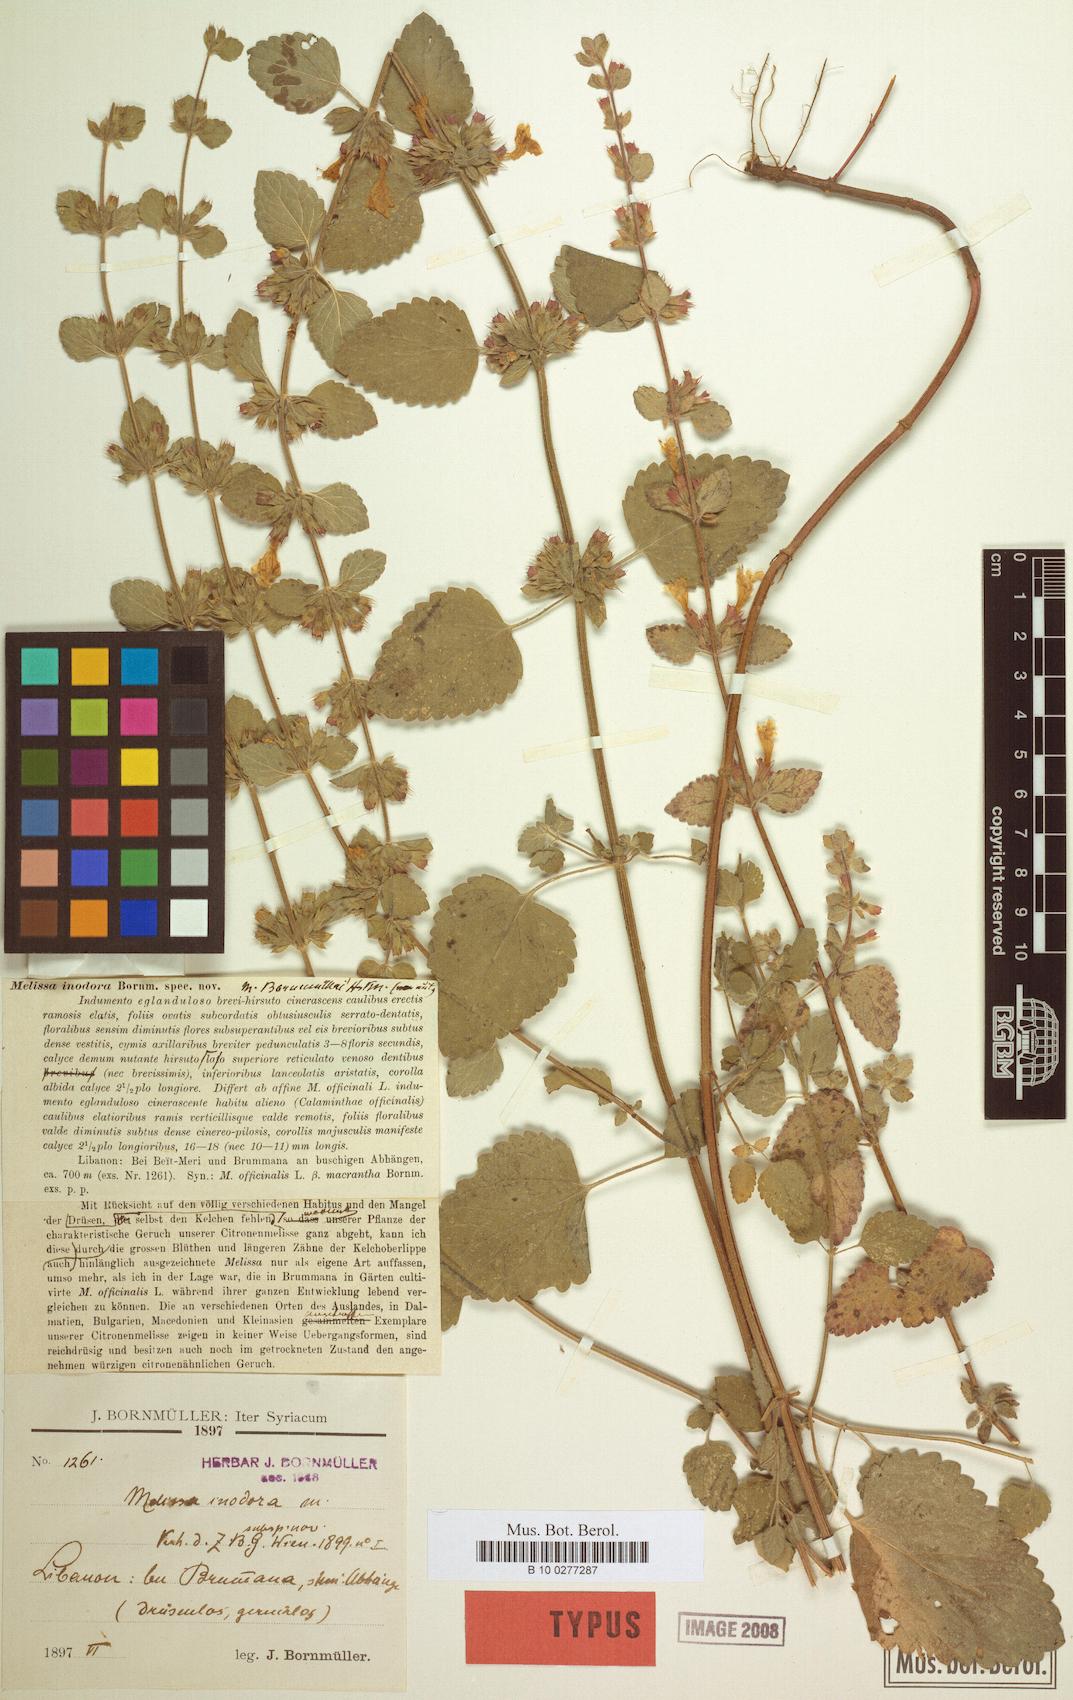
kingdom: Plantae
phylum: Tracheophyta
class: Magnoliopsida
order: Lamiales
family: Lamiaceae
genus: Melissa
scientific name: Melissa officinalis
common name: Balm
